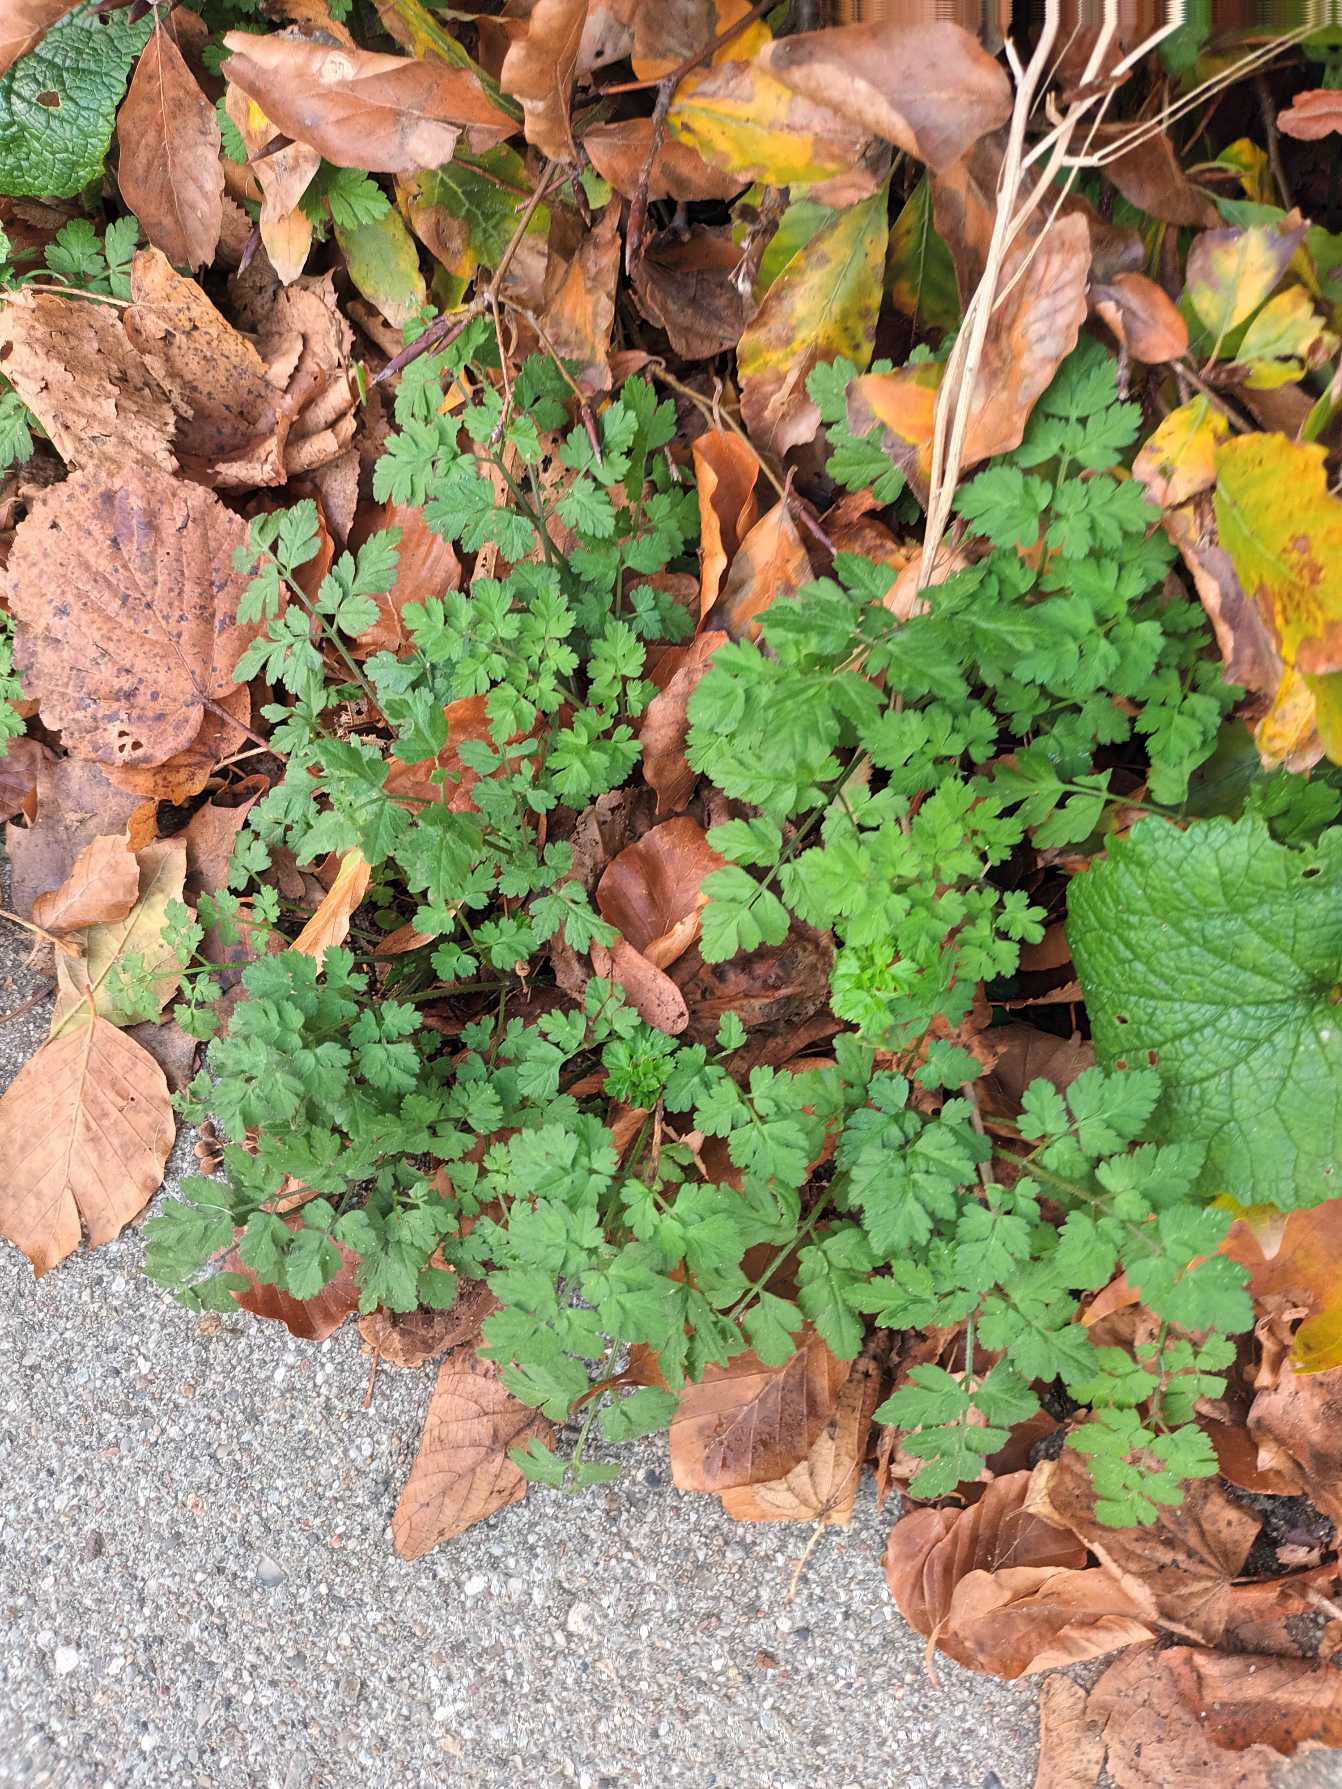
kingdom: Plantae
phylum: Tracheophyta
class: Magnoliopsida
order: Apiales
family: Apiaceae
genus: Chaerophyllum
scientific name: Chaerophyllum temulum
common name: Almindelig hulsvøb
